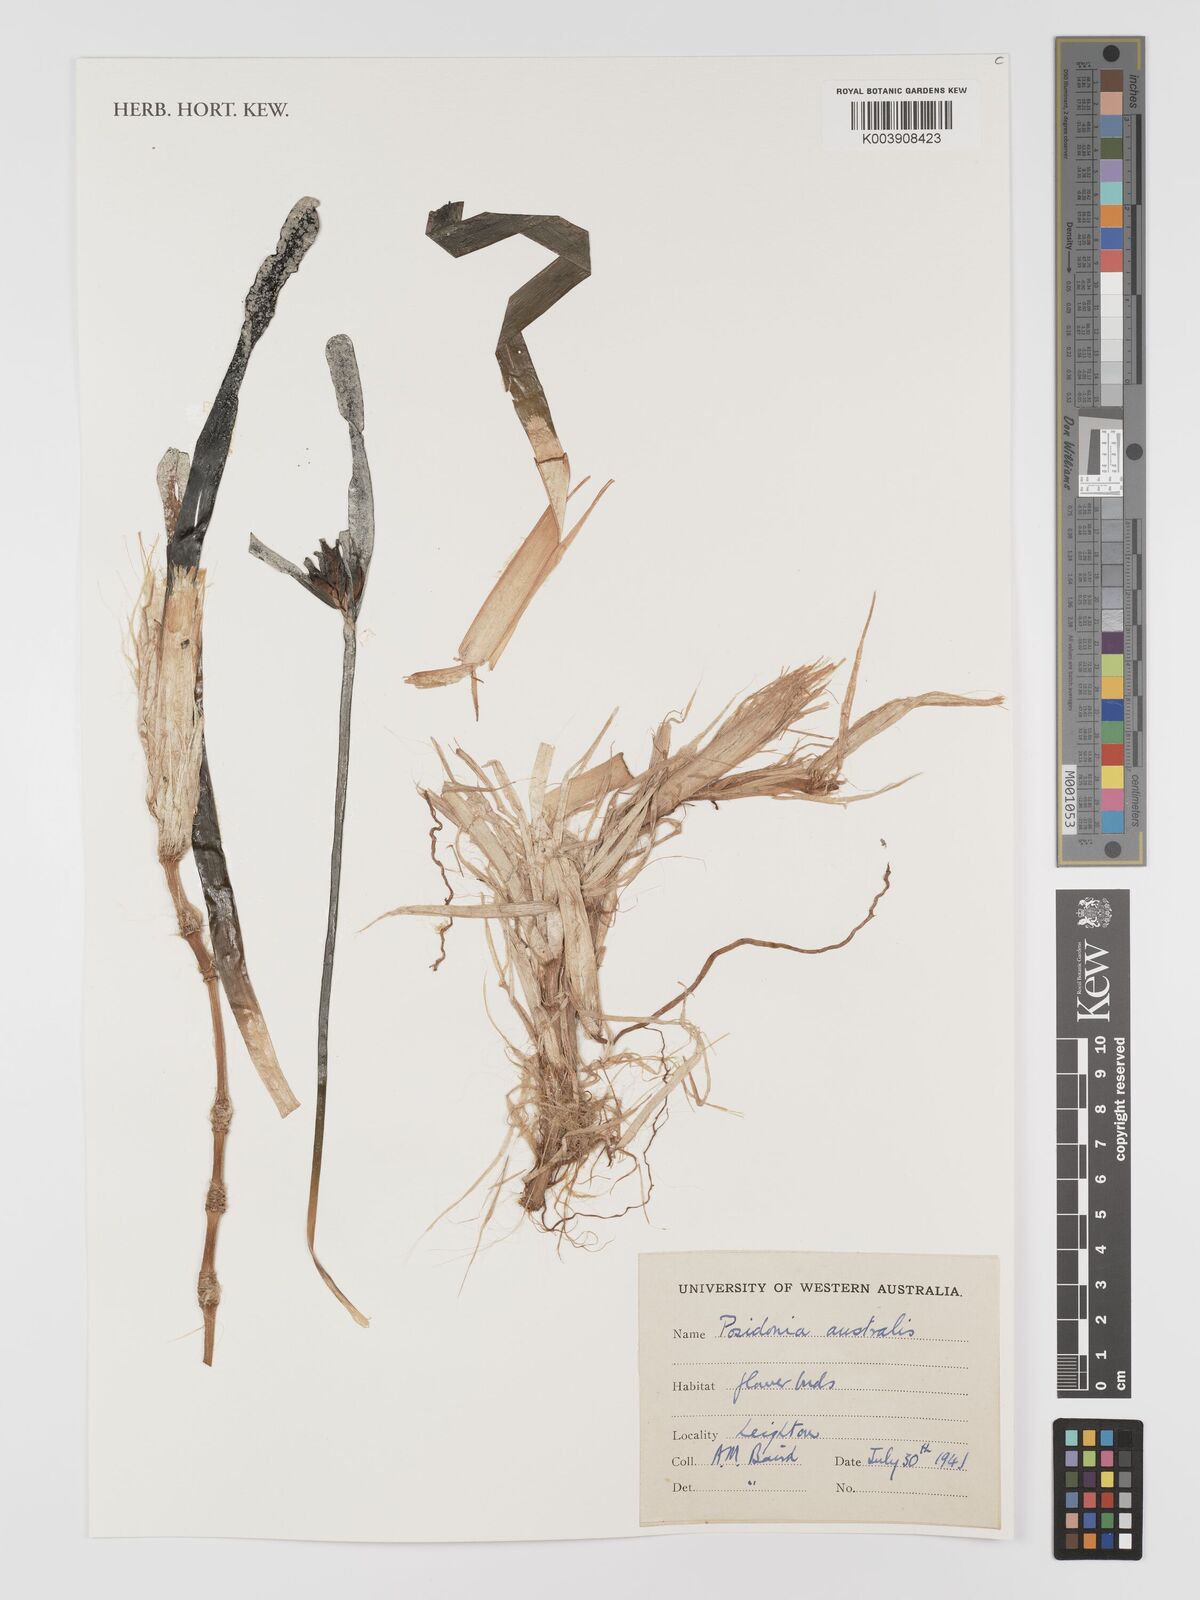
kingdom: Plantae
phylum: Tracheophyta
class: Liliopsida
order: Alismatales
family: Posidoniaceae
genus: Posidonia
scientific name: Posidonia australis
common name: Species code: pa
